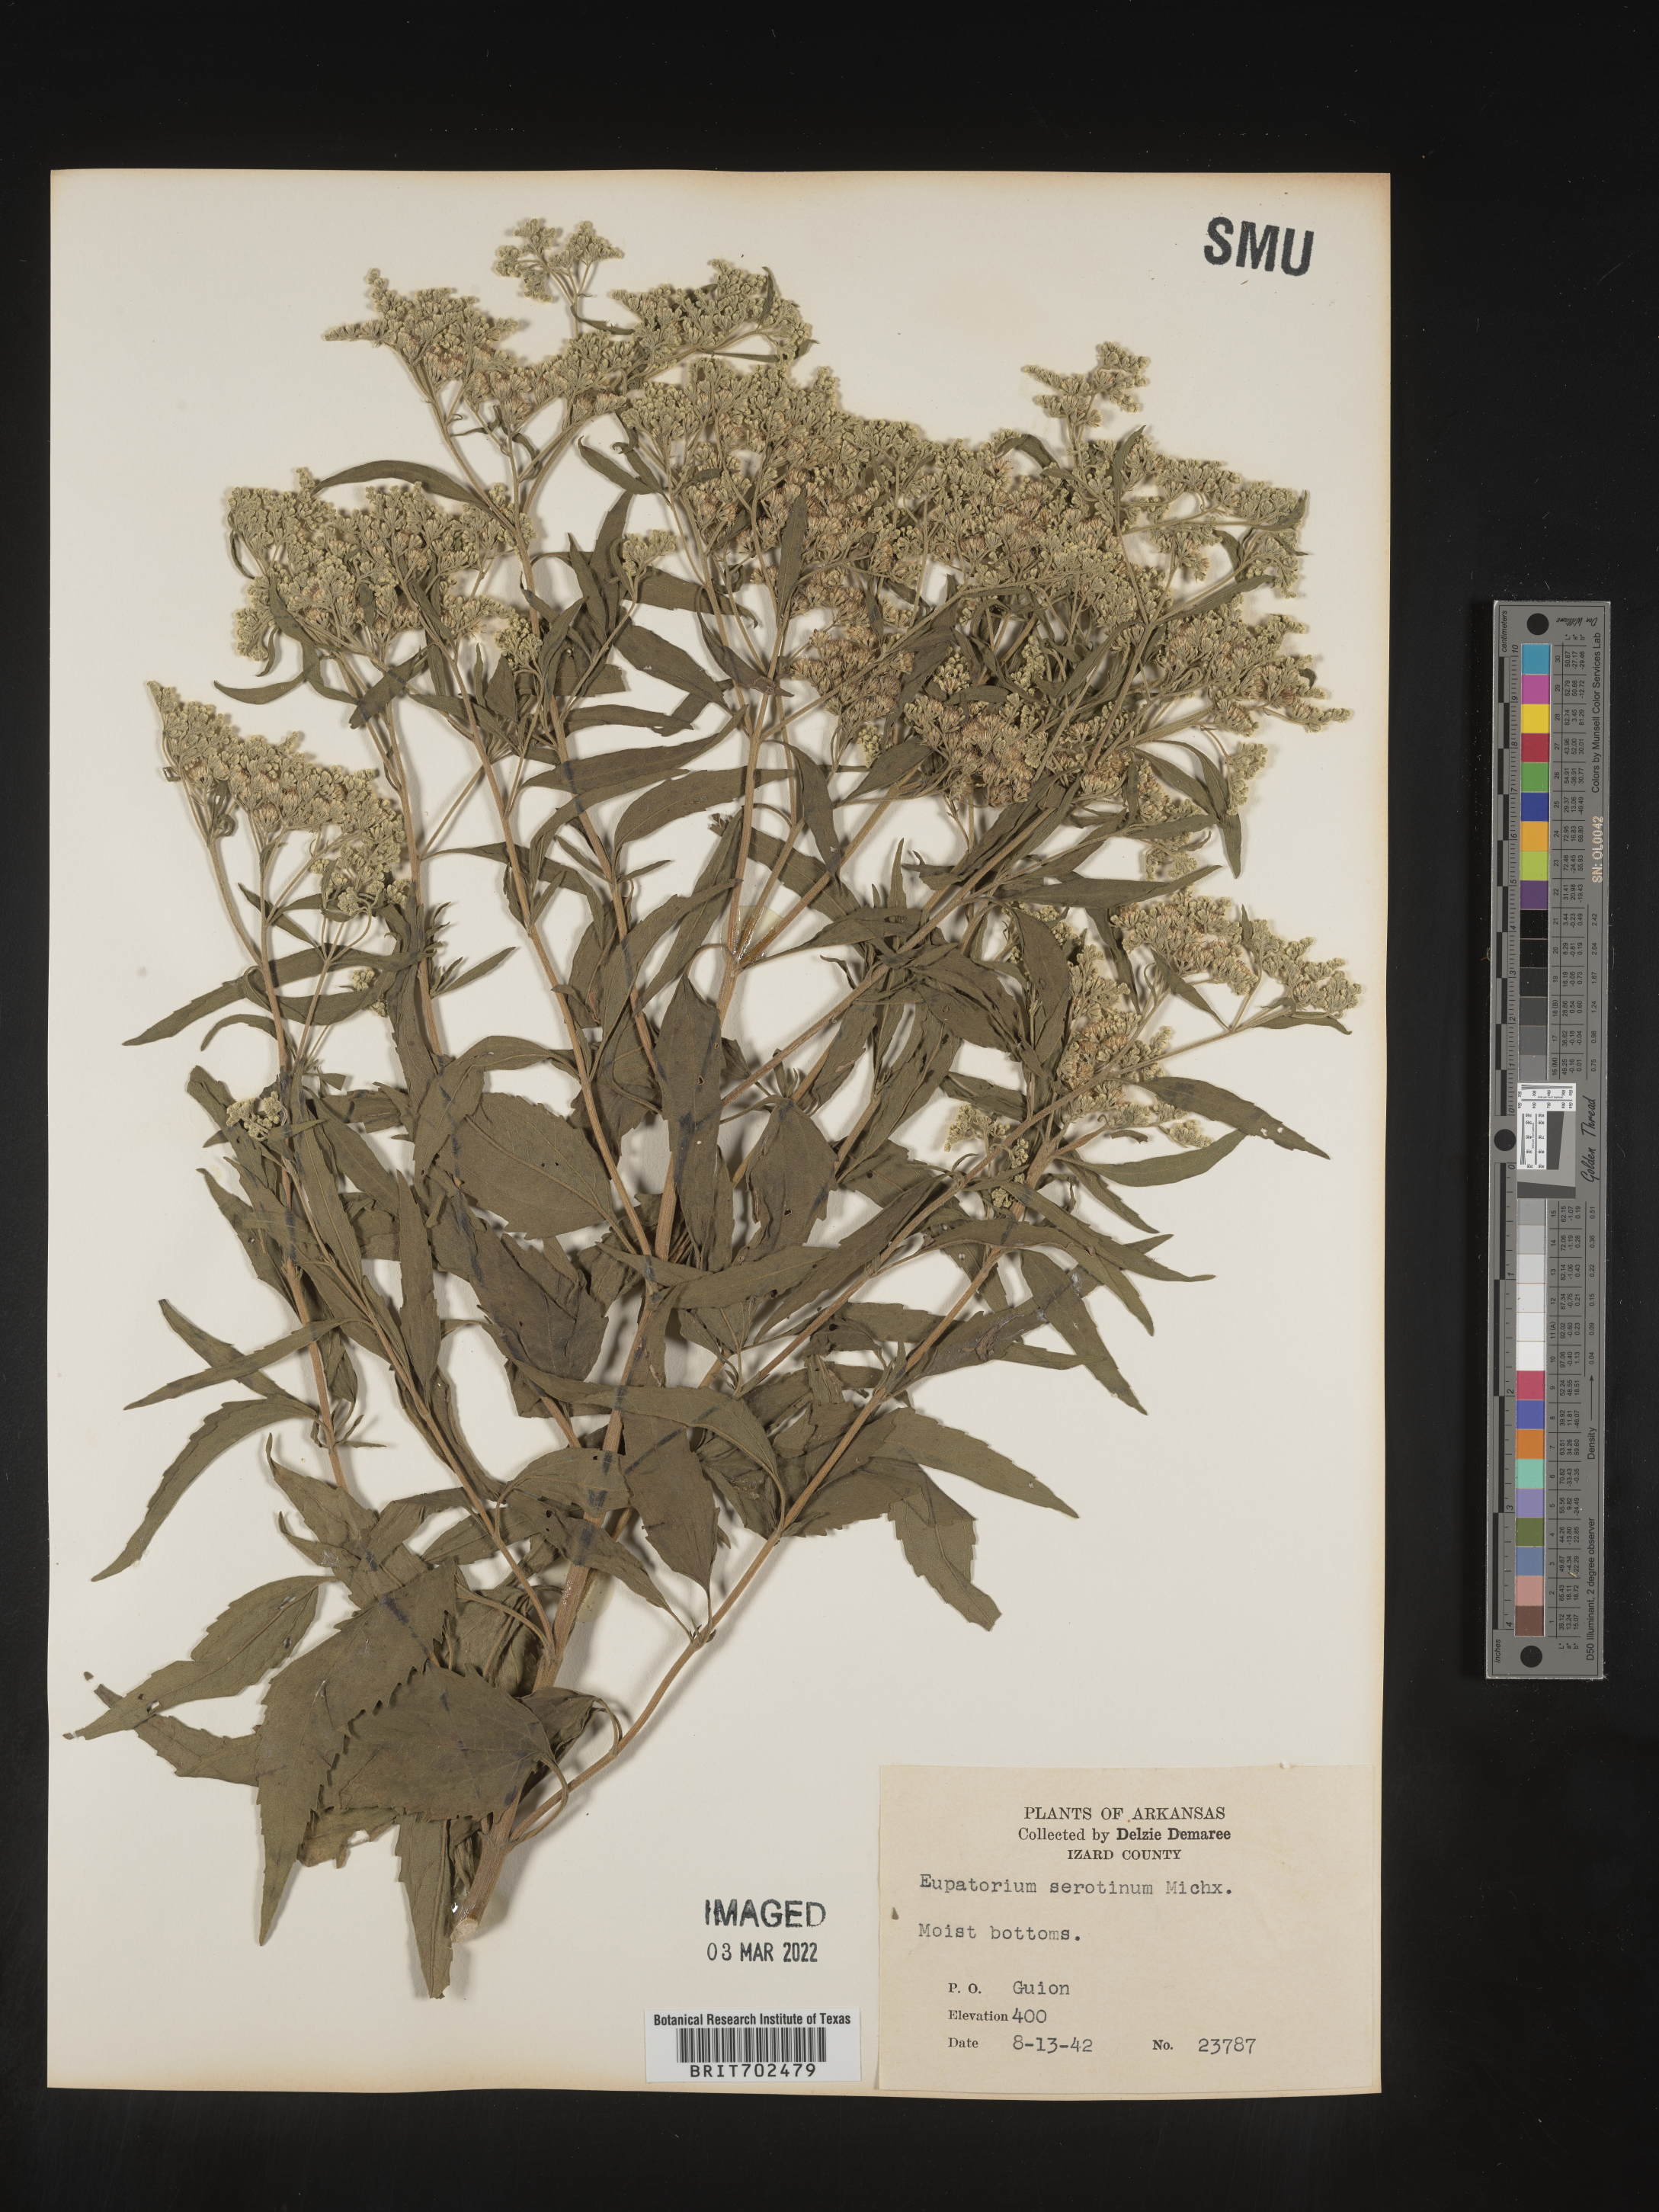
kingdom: Plantae
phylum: Tracheophyta
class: Magnoliopsida
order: Asterales
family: Asteraceae
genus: Eupatorium
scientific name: Eupatorium serotinum
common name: Late boneset
